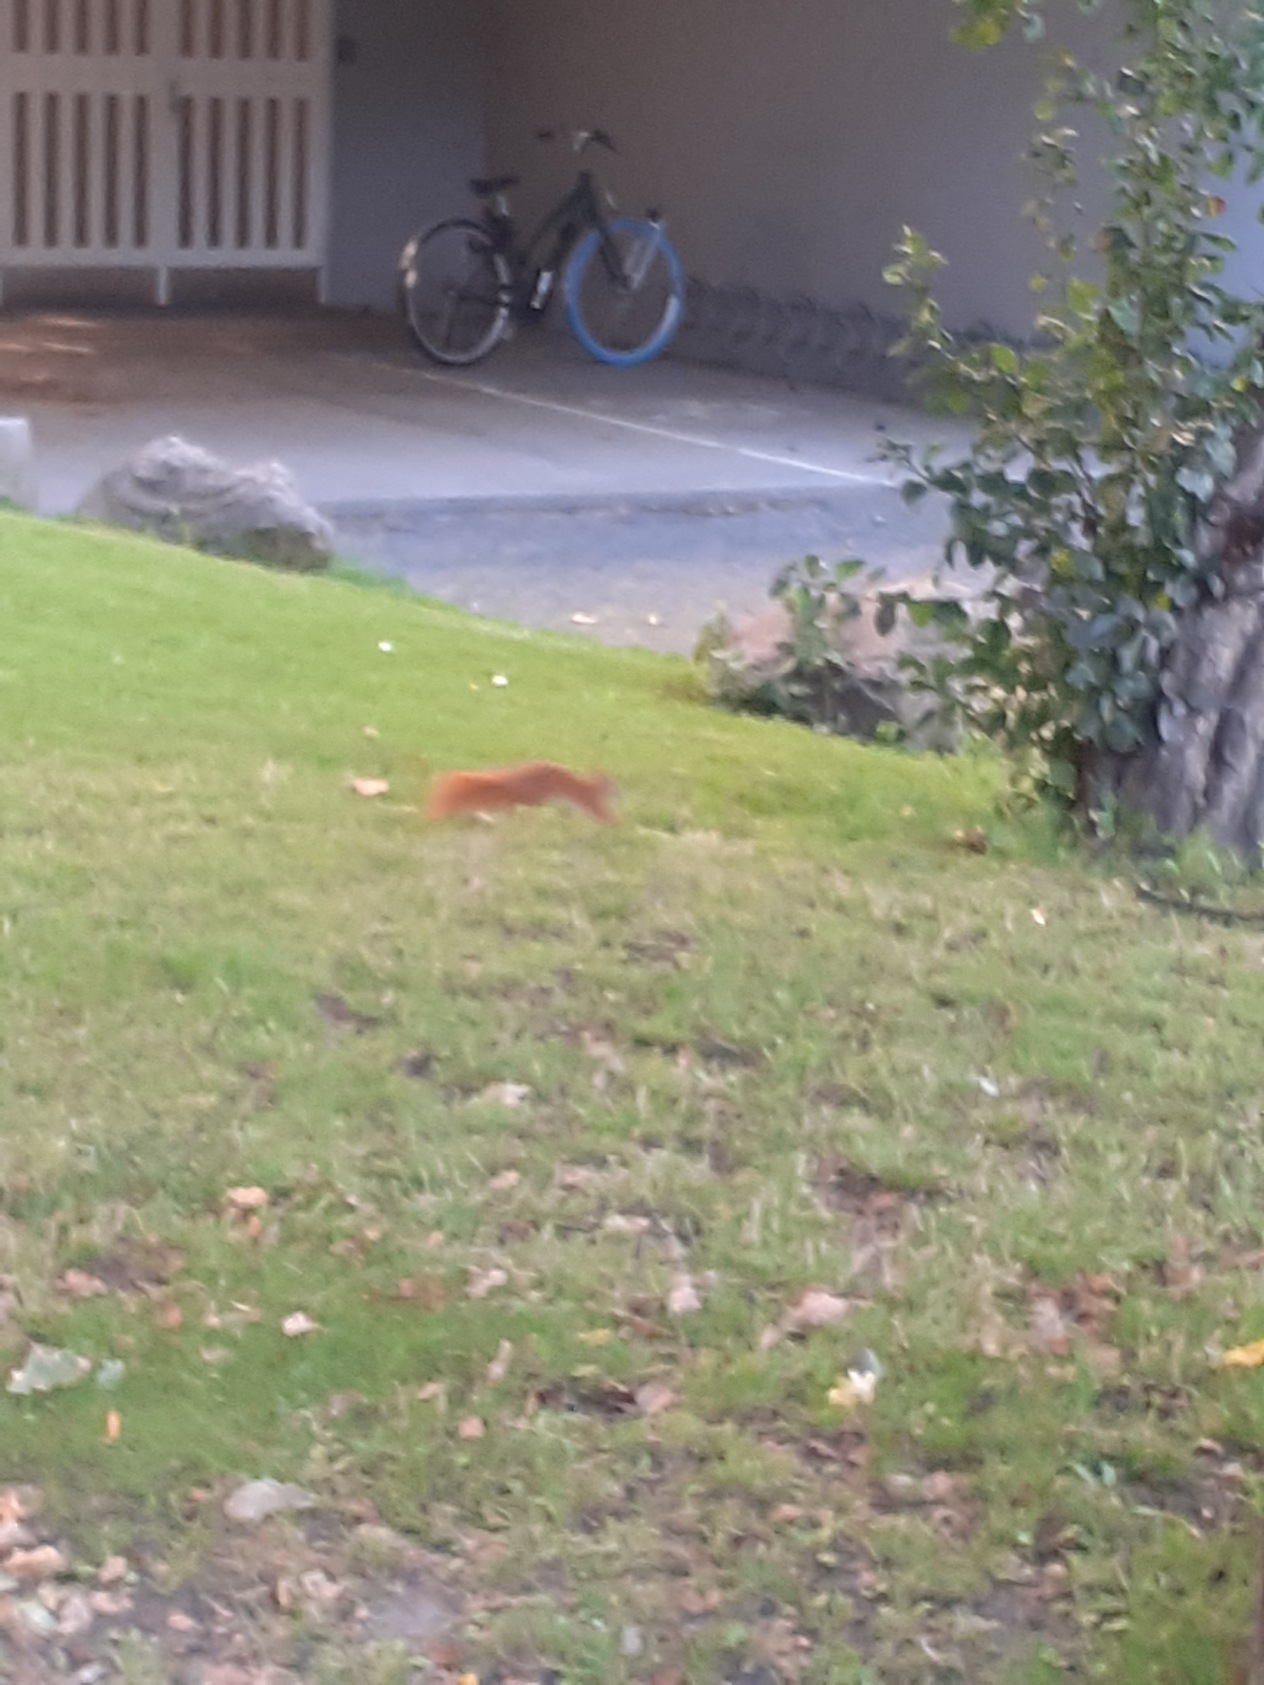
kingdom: Animalia
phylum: Chordata
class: Mammalia
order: Rodentia
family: Sciuridae
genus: Sciurus
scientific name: Sciurus vulgaris
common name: Egern
